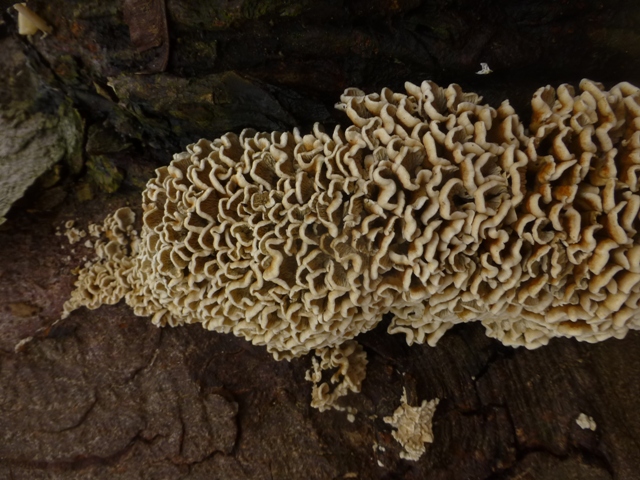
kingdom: Fungi
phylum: Basidiomycota
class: Agaricomycetes
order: Amylocorticiales
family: Amylocorticiaceae
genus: Plicaturopsis
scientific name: Plicaturopsis crispa
